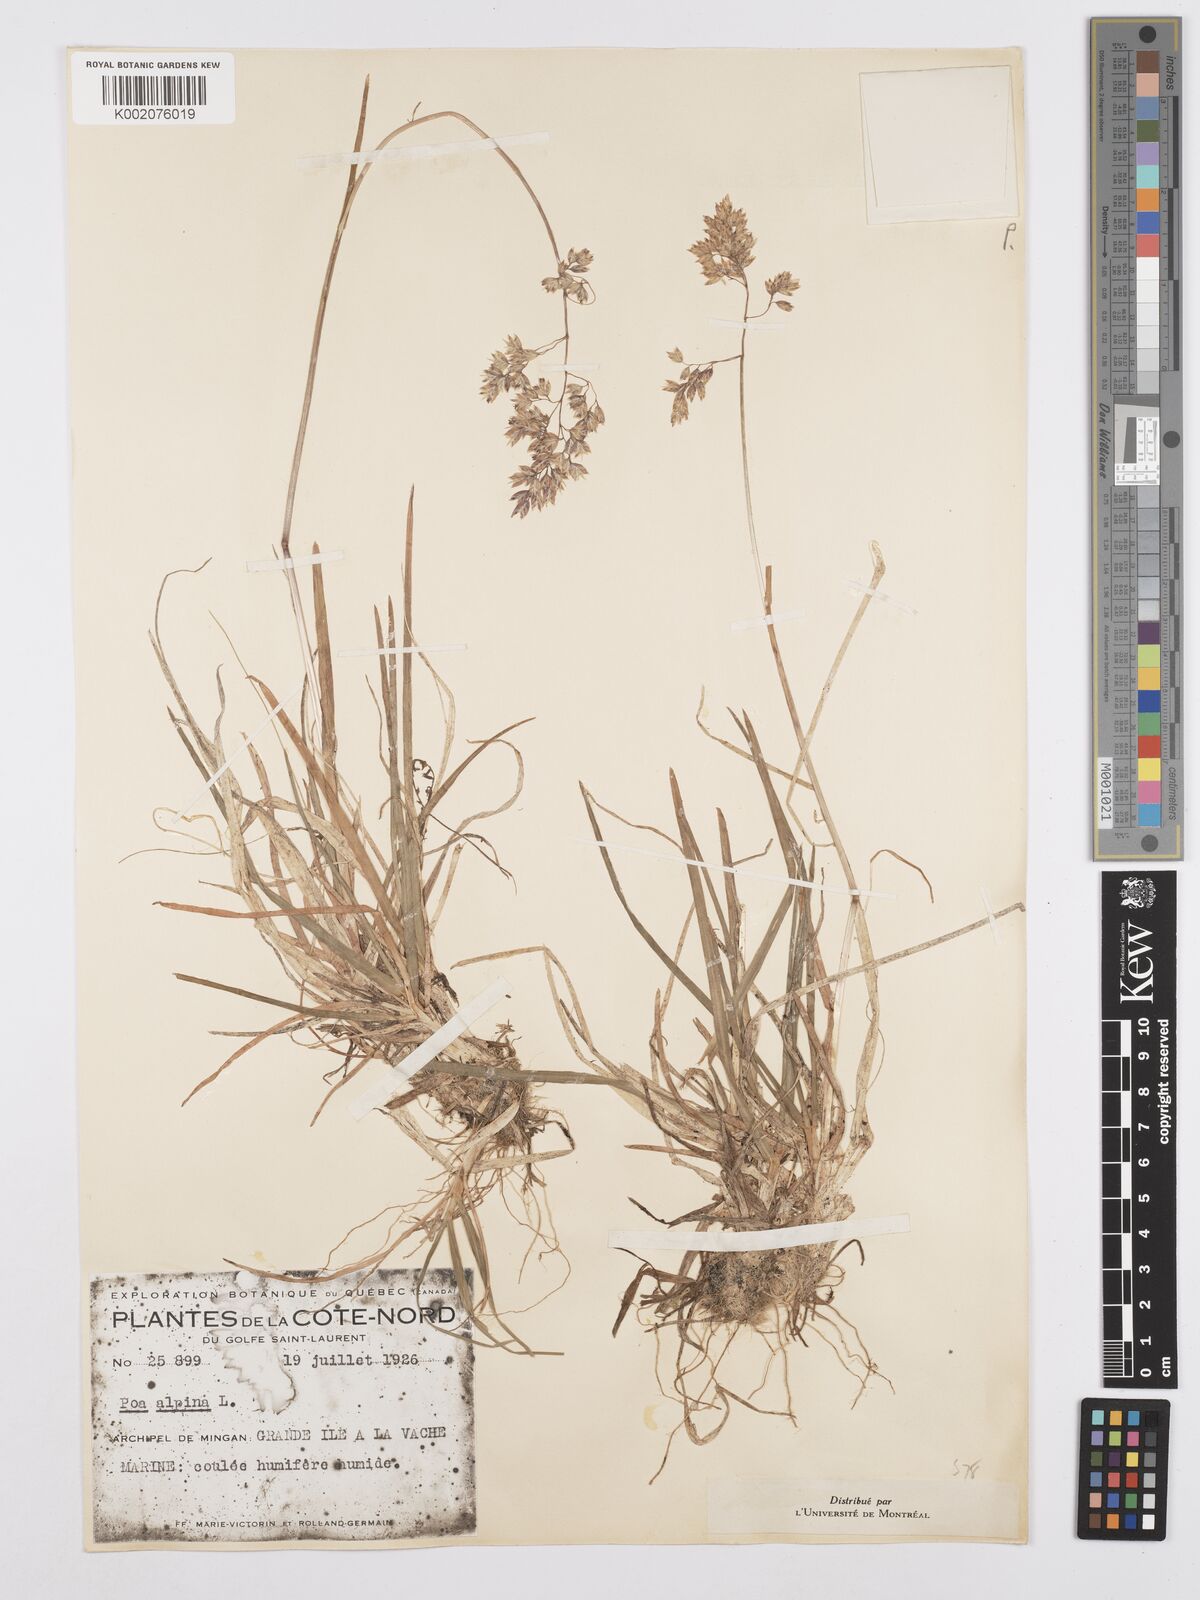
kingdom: Plantae
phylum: Tracheophyta
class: Liliopsida
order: Poales
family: Poaceae
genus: Poa
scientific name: Poa alpina
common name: Alpine bluegrass
